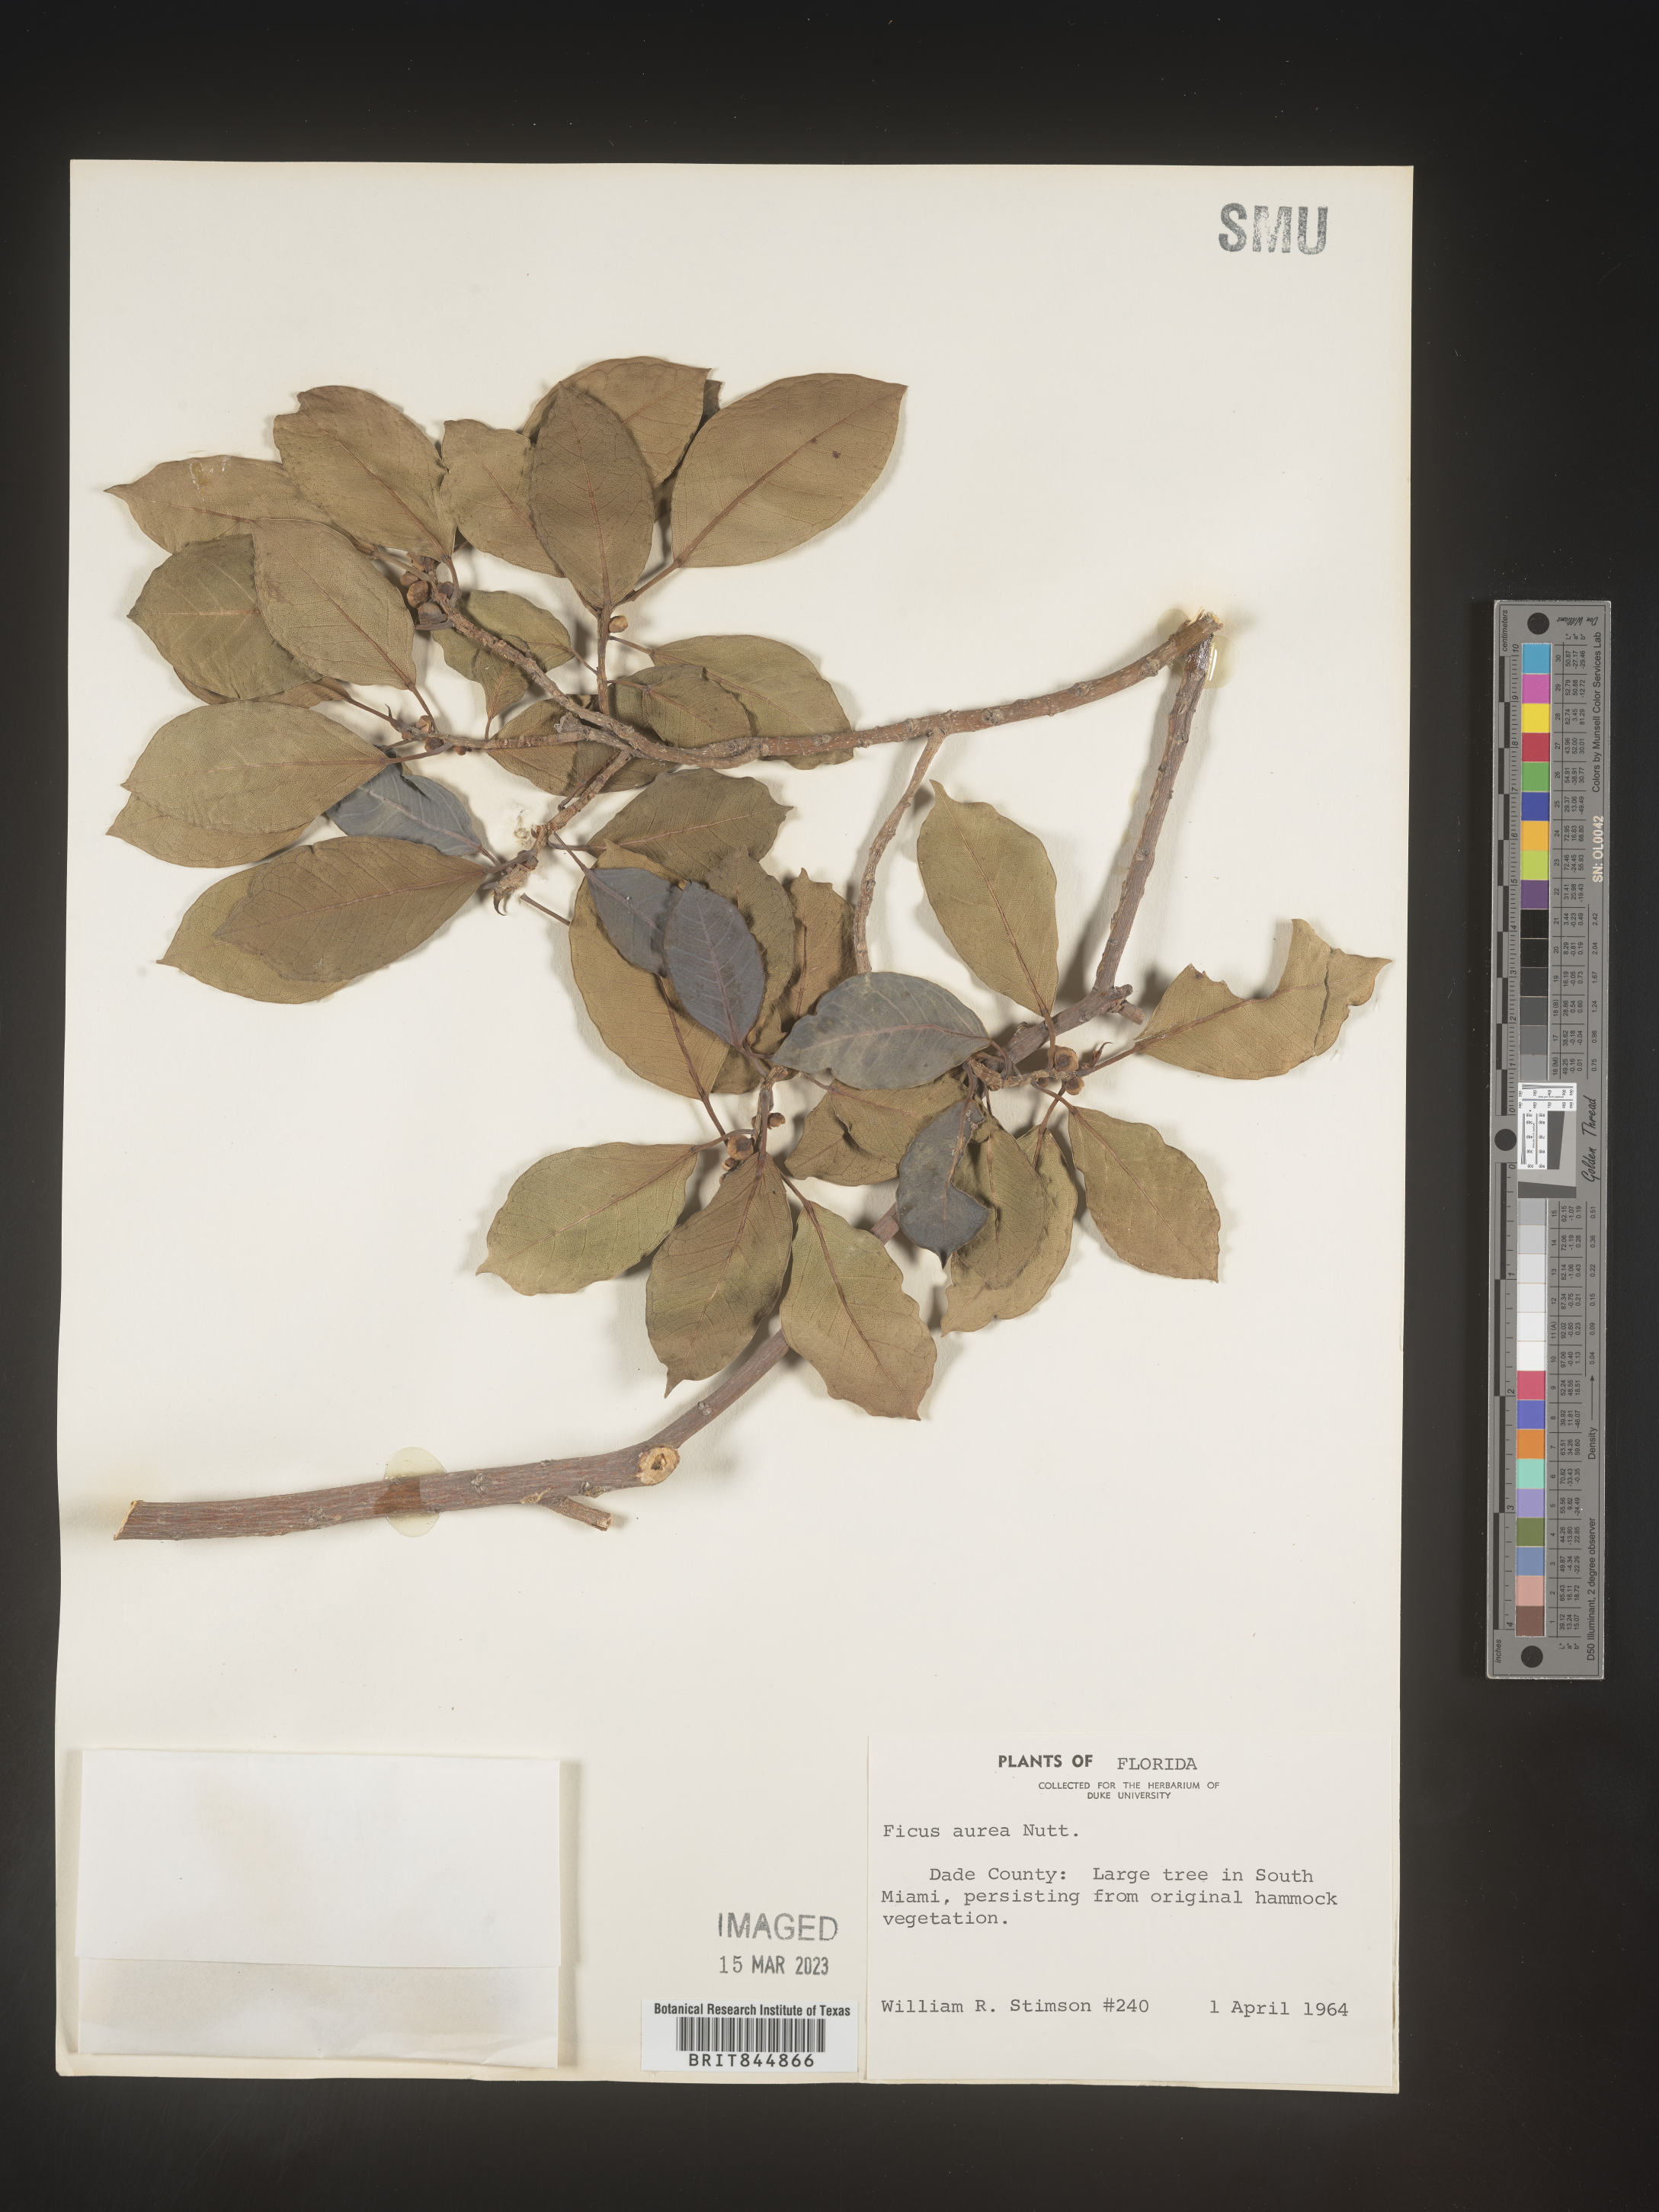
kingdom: Plantae
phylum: Tracheophyta
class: Magnoliopsida
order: Rosales
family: Moraceae
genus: Ficus
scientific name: Ficus
